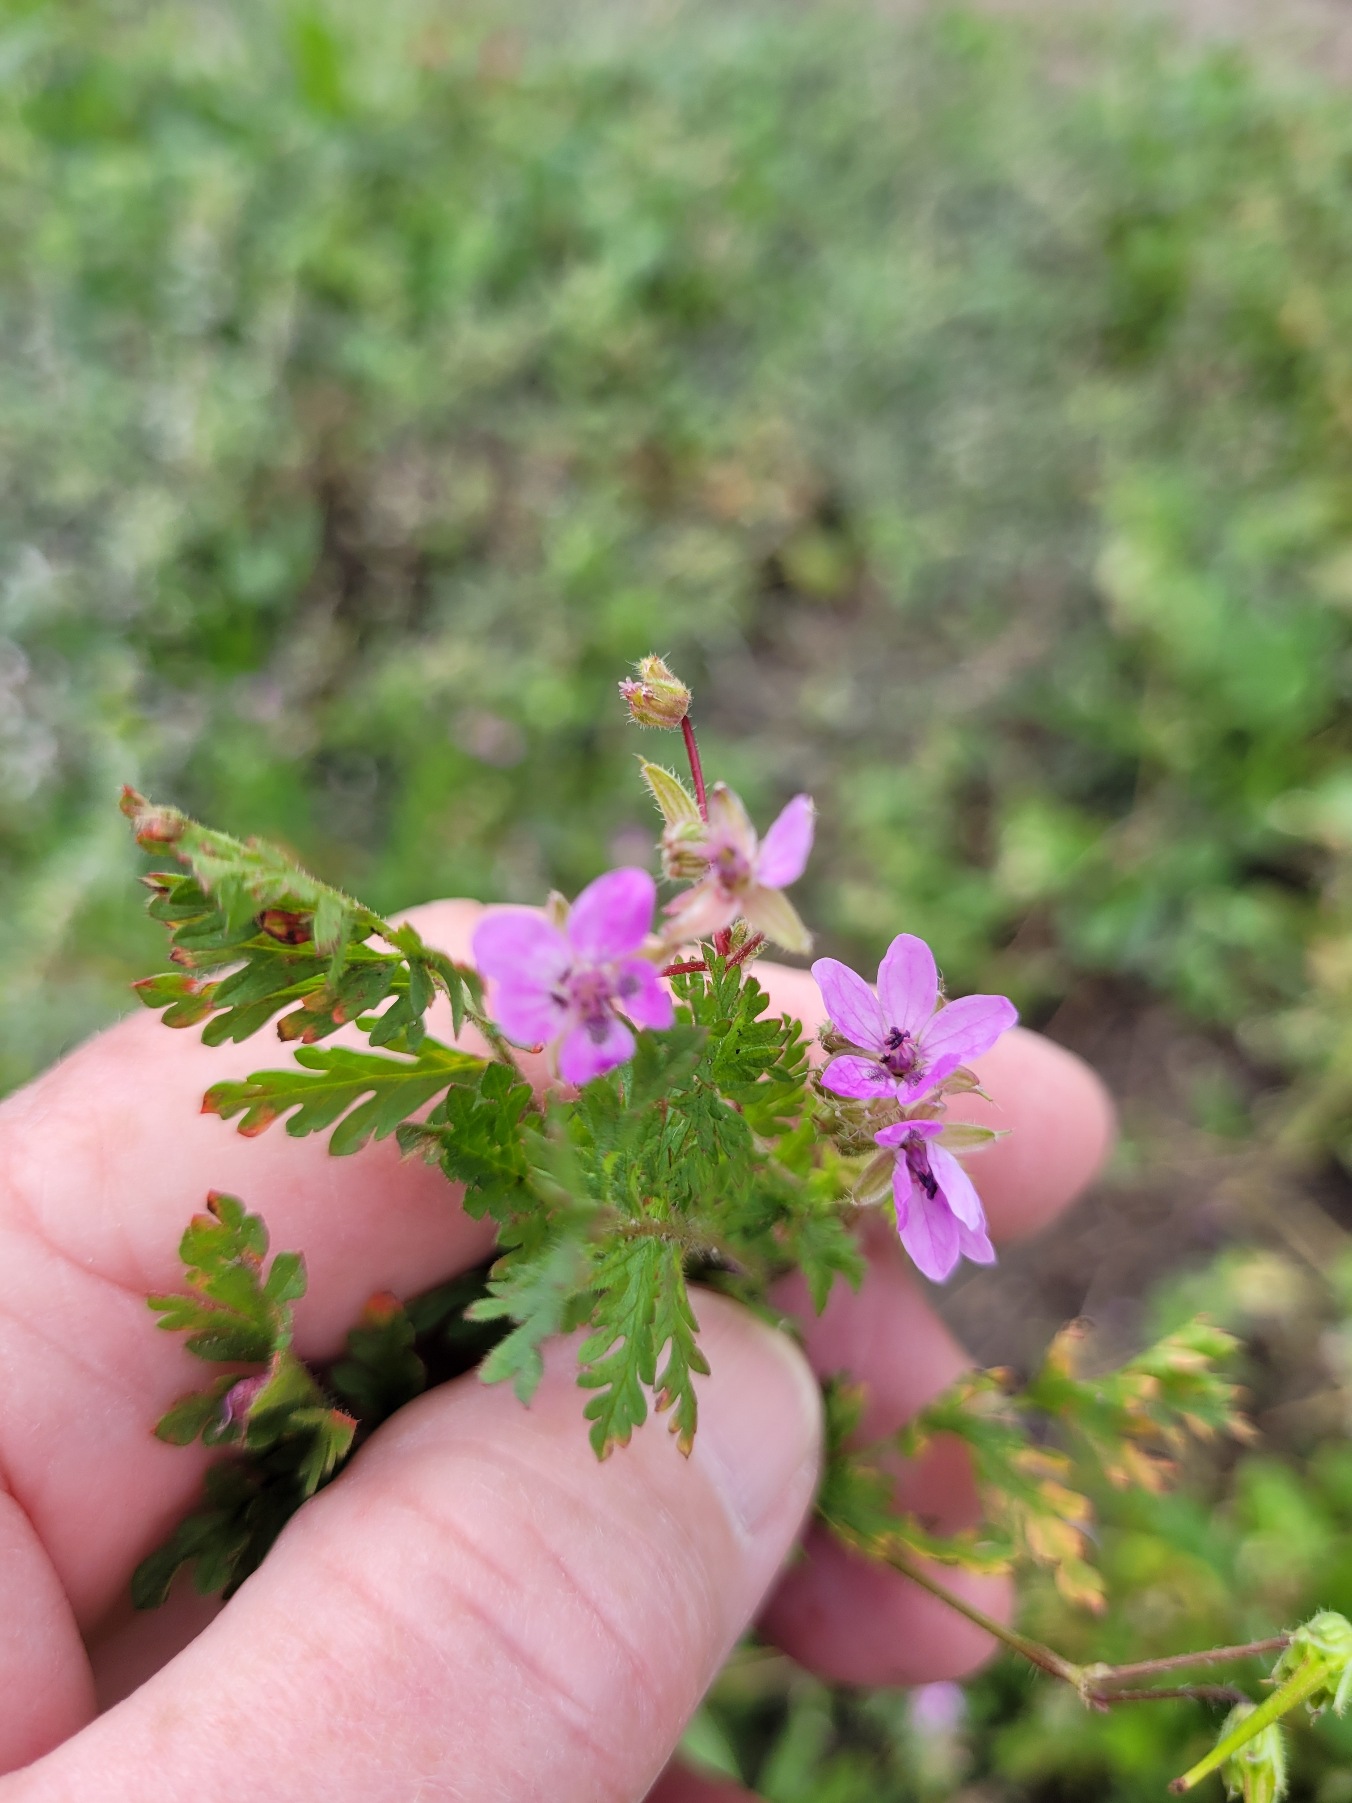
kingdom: Plantae
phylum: Tracheophyta
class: Magnoliopsida
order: Geraniales
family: Geraniaceae
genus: Erodium
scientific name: Erodium cicutarium
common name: Hejrenæb
